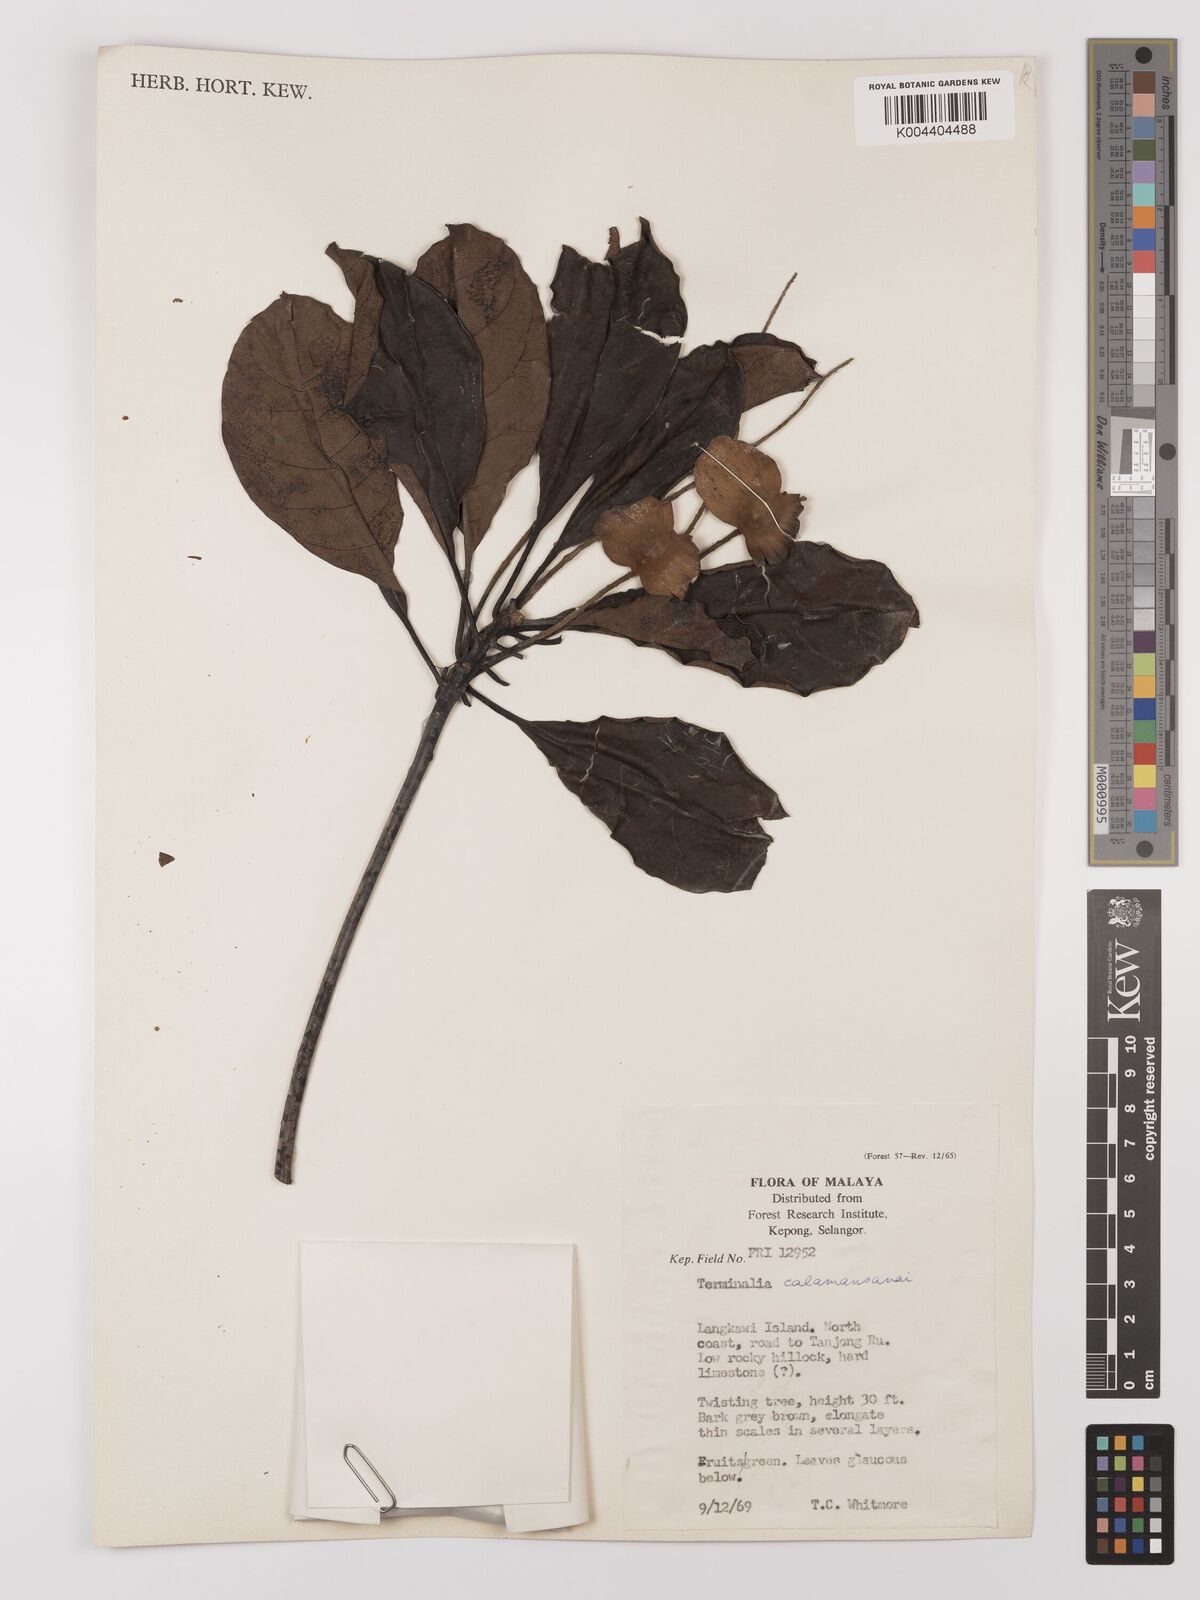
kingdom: Plantae
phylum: Tracheophyta
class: Magnoliopsida
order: Myrtales
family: Combretaceae
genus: Terminalia
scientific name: Terminalia calamansanai
